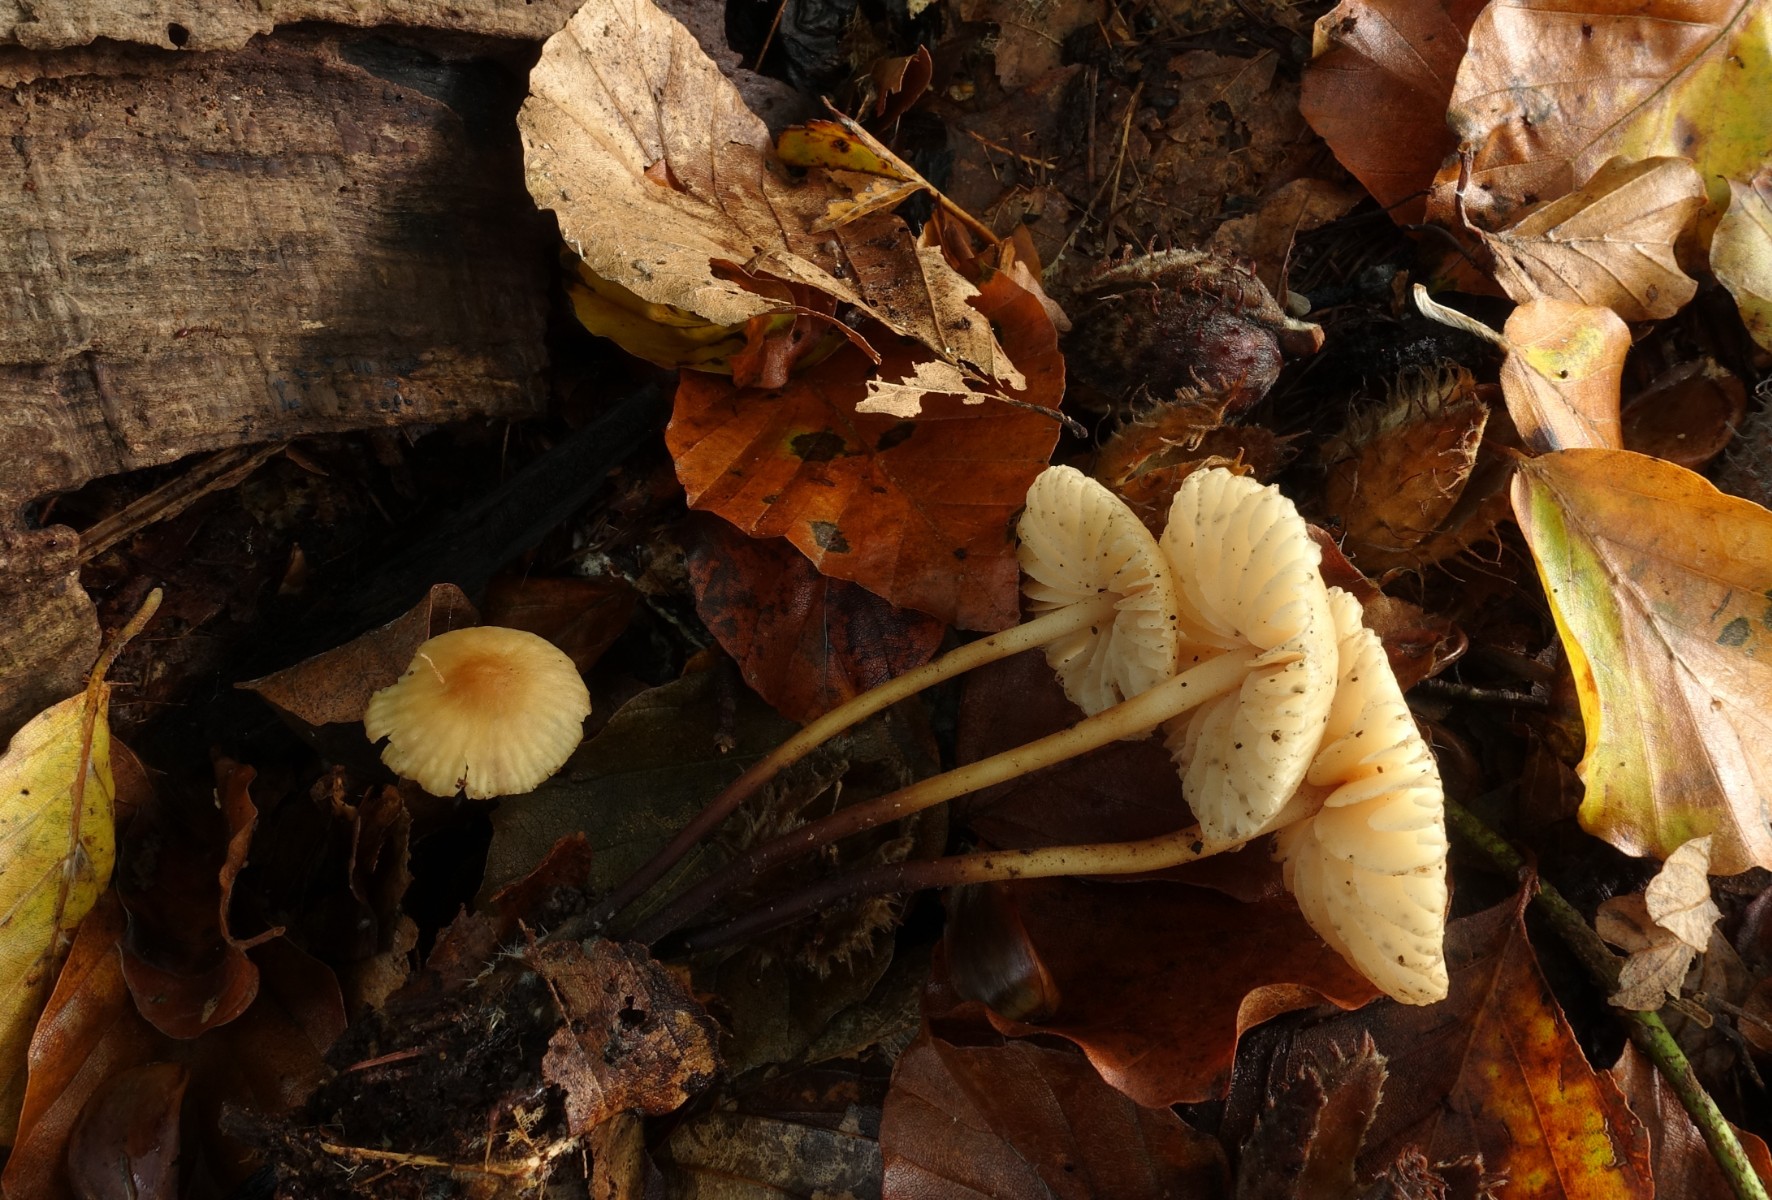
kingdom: Fungi
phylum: Basidiomycota
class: Agaricomycetes
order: Agaricales
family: Marasmiaceae
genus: Marasmius
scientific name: Marasmius torquescens
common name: filtfodet bruskhat
